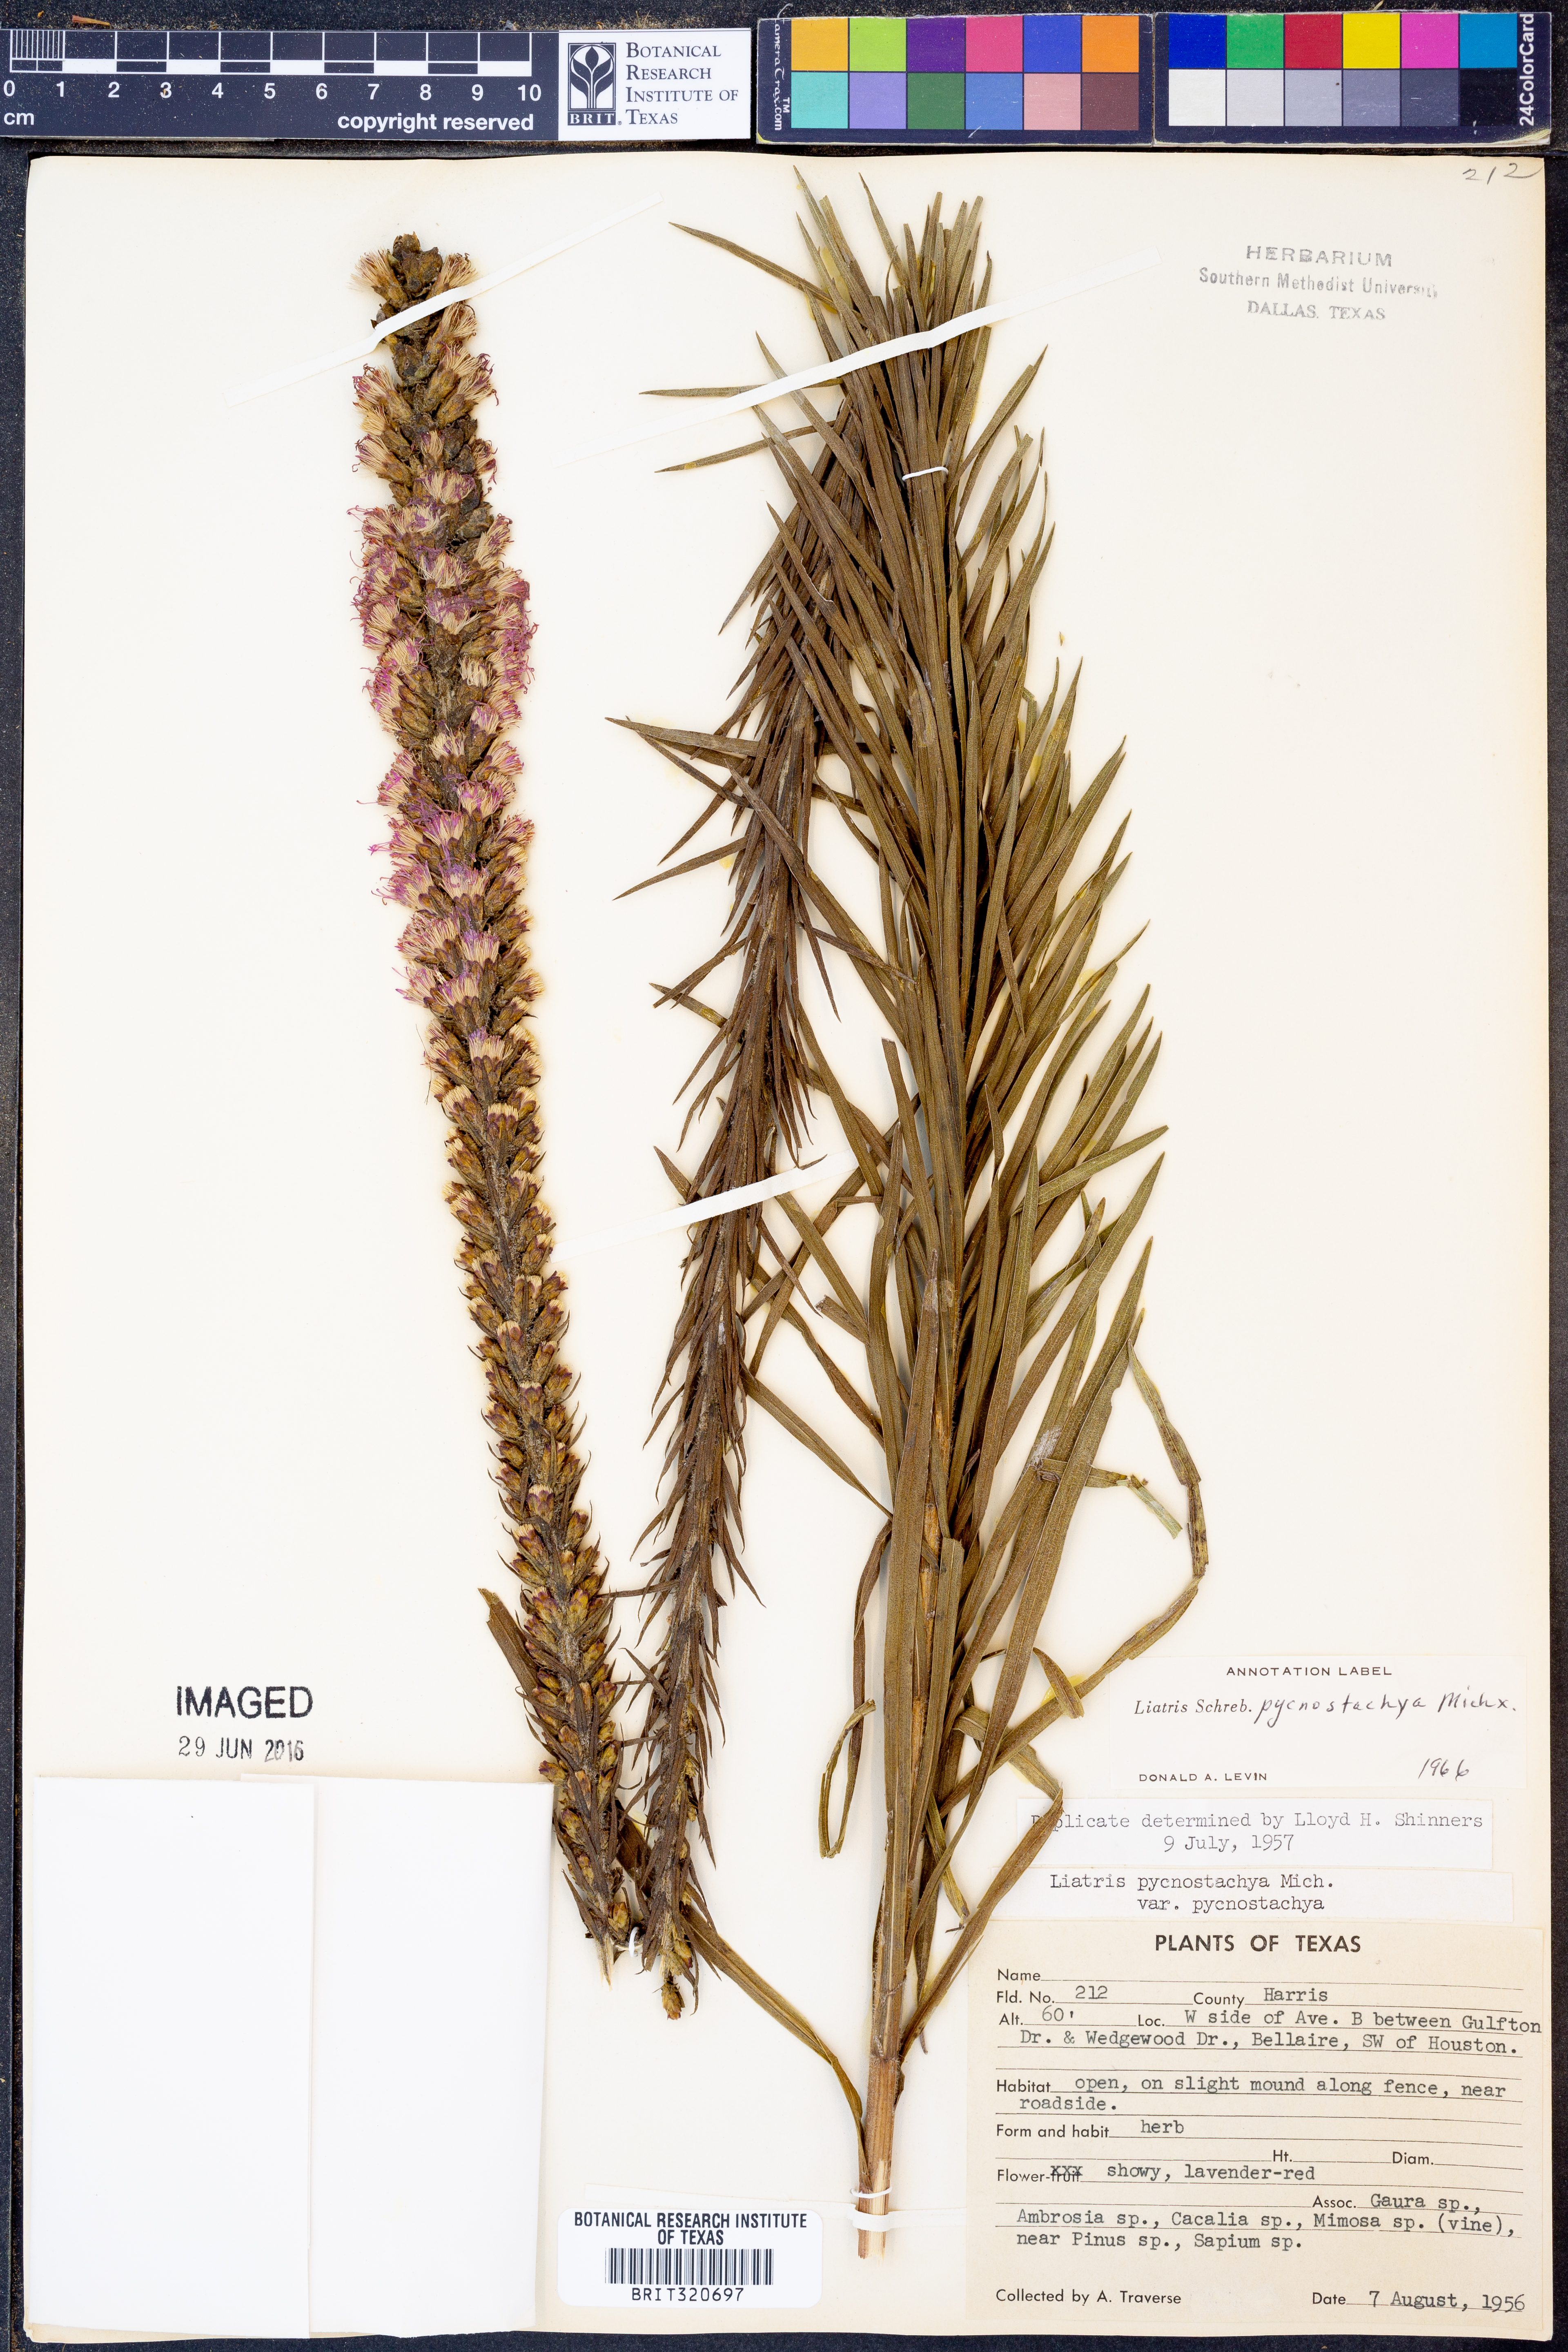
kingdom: Plantae
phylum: Tracheophyta
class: Magnoliopsida
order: Asterales
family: Asteraceae
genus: Liatris
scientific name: Liatris pycnostachya
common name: Cattail gayfeather
